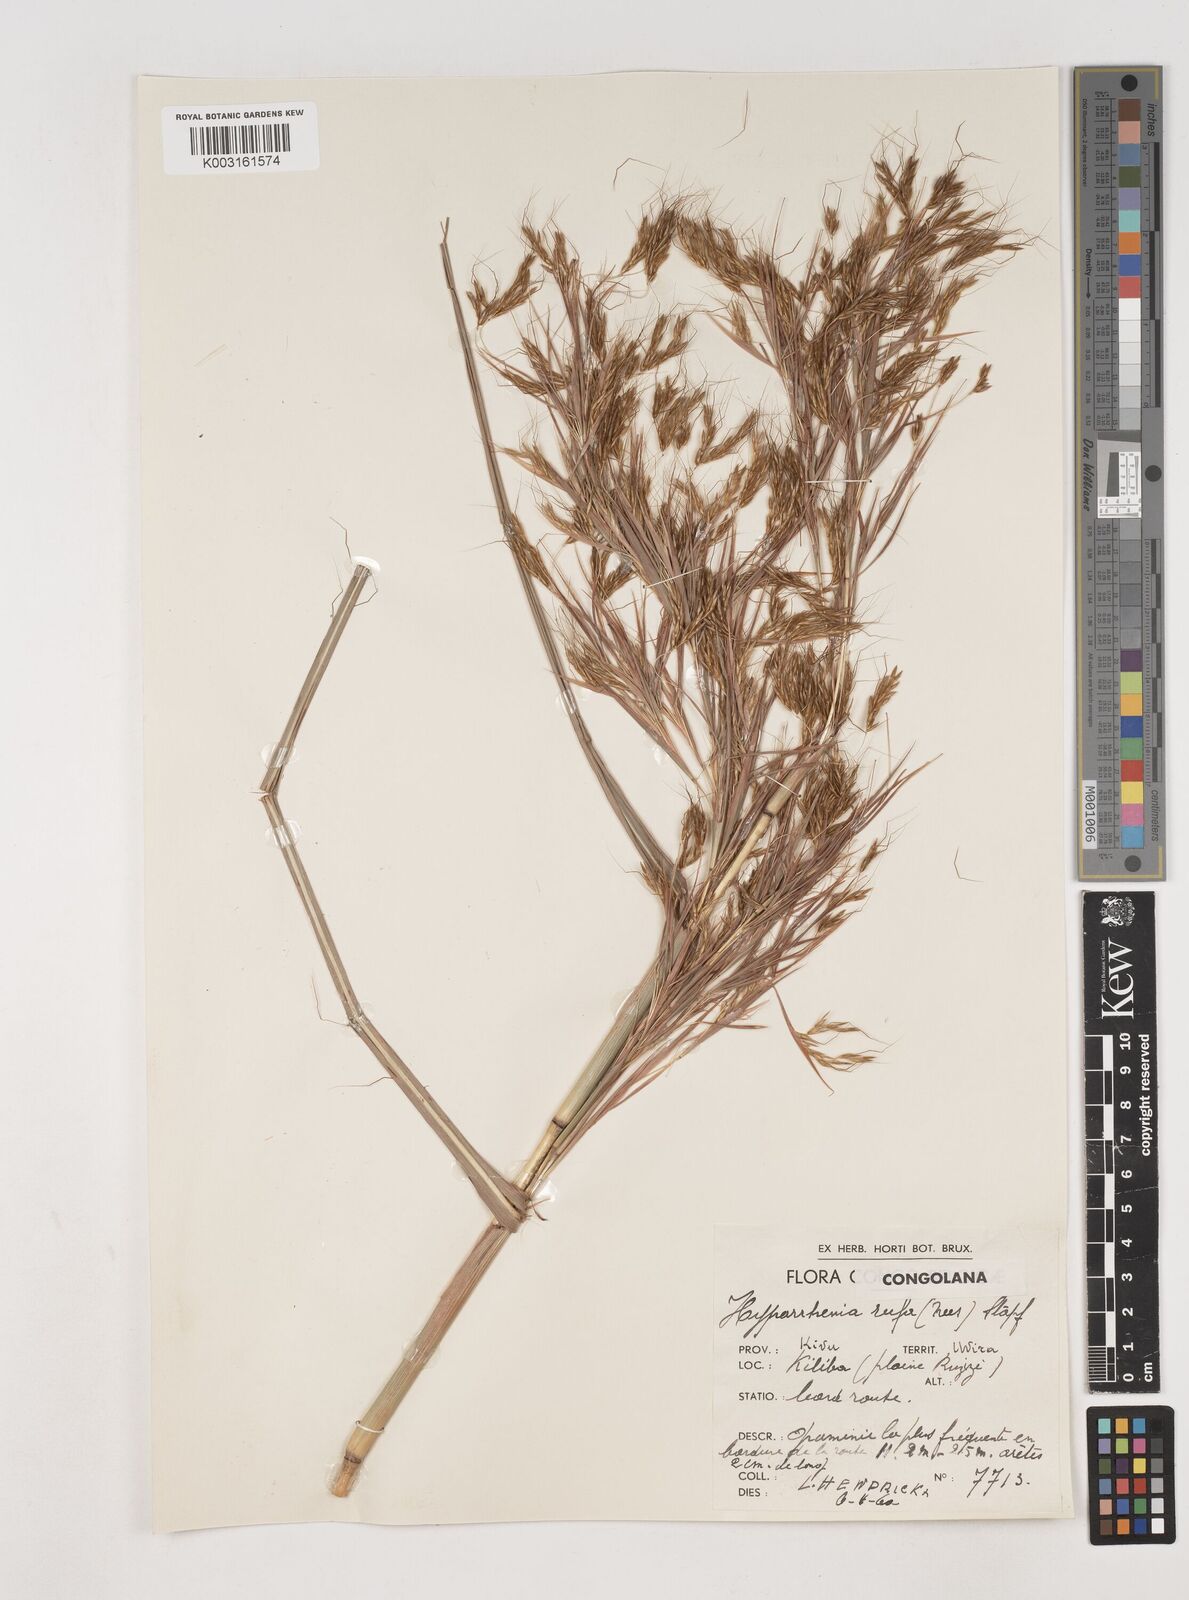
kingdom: Plantae
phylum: Tracheophyta
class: Liliopsida
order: Poales
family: Poaceae
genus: Hyparrhenia
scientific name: Hyparrhenia rufa
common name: Jaraguagrass
